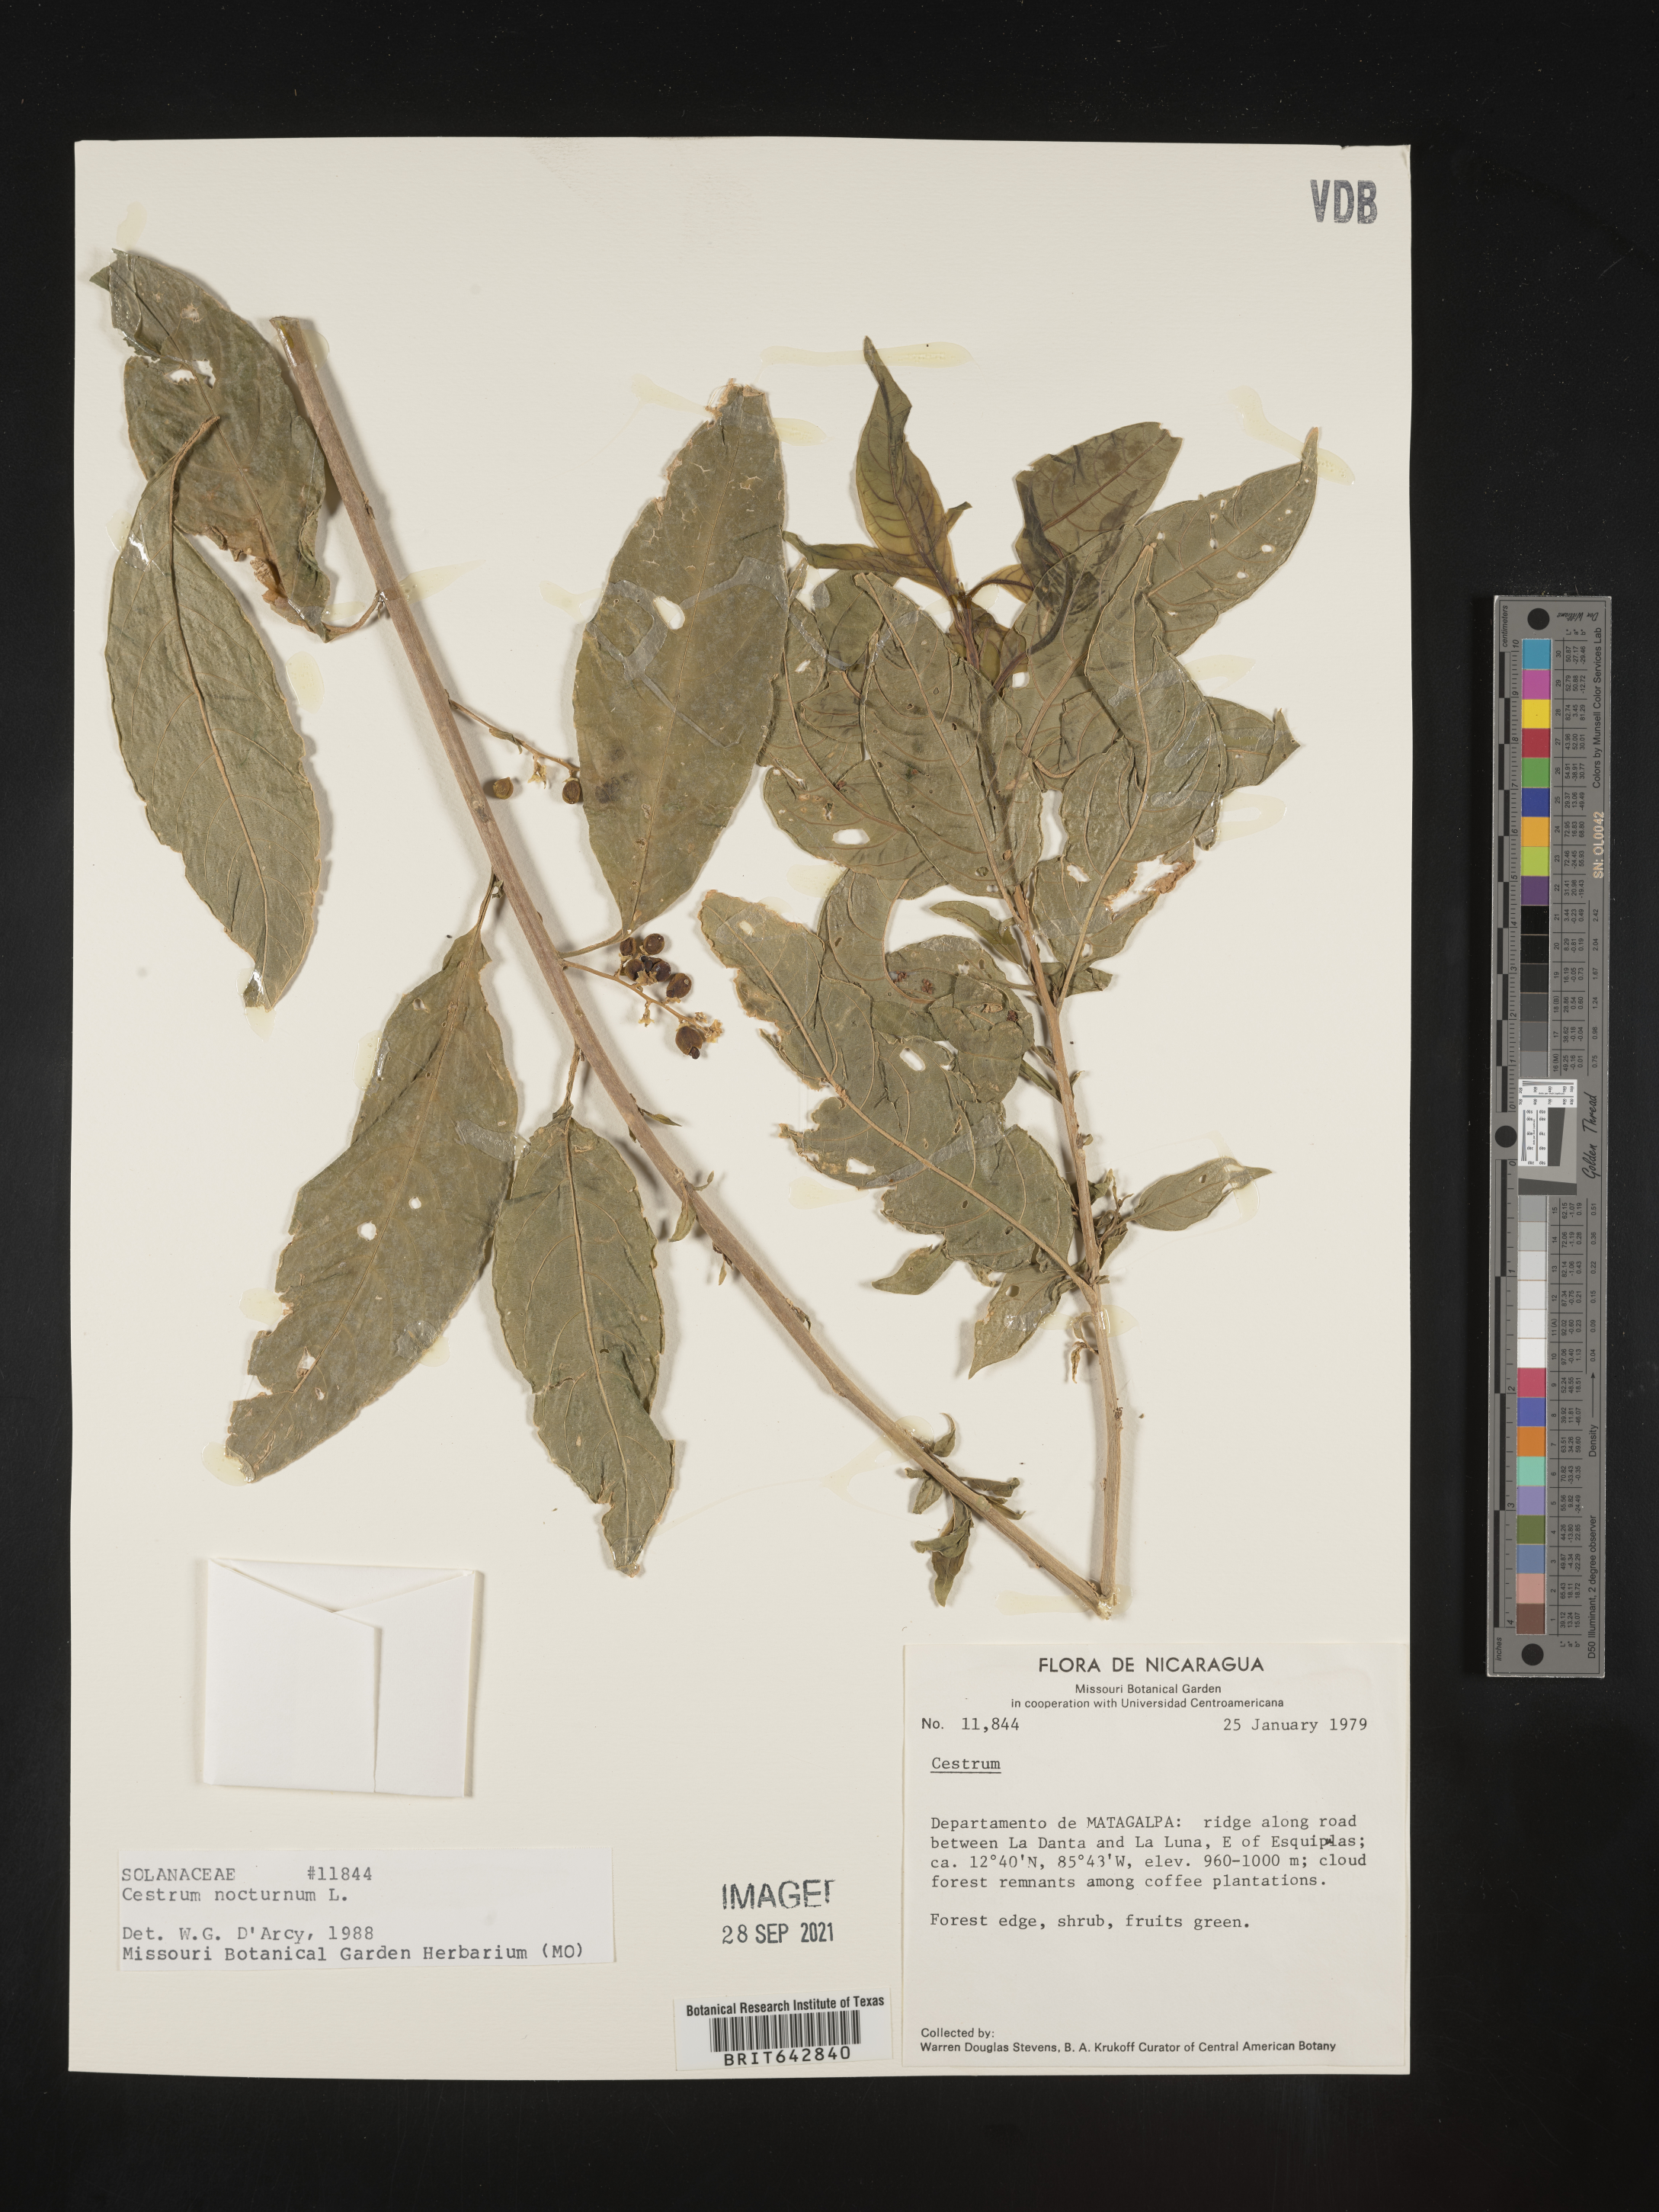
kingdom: Plantae
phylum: Tracheophyta
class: Magnoliopsida
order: Solanales
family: Solanaceae
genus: Cestrum
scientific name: Cestrum
